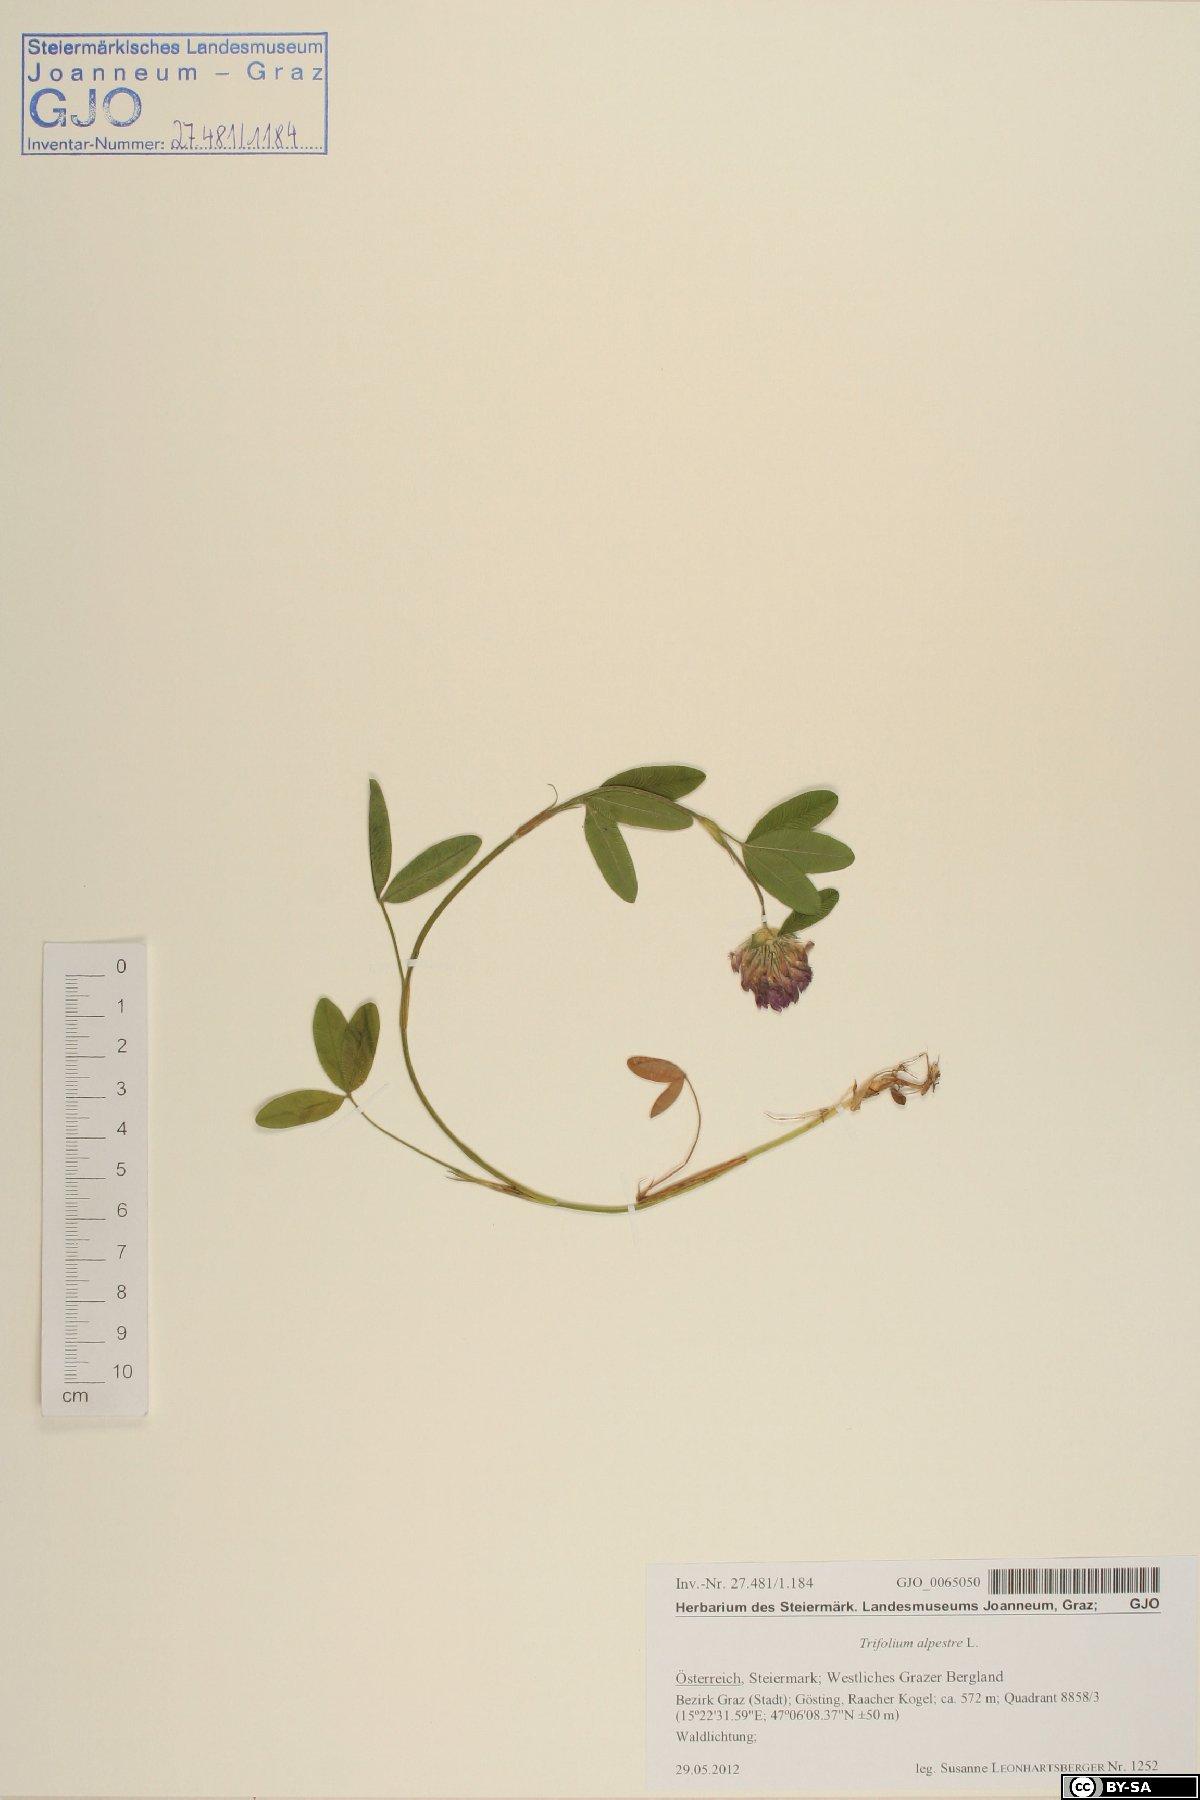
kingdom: Plantae
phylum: Tracheophyta
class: Magnoliopsida
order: Fabales
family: Fabaceae
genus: Trifolium
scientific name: Trifolium alpestre
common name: Owl-head clover
